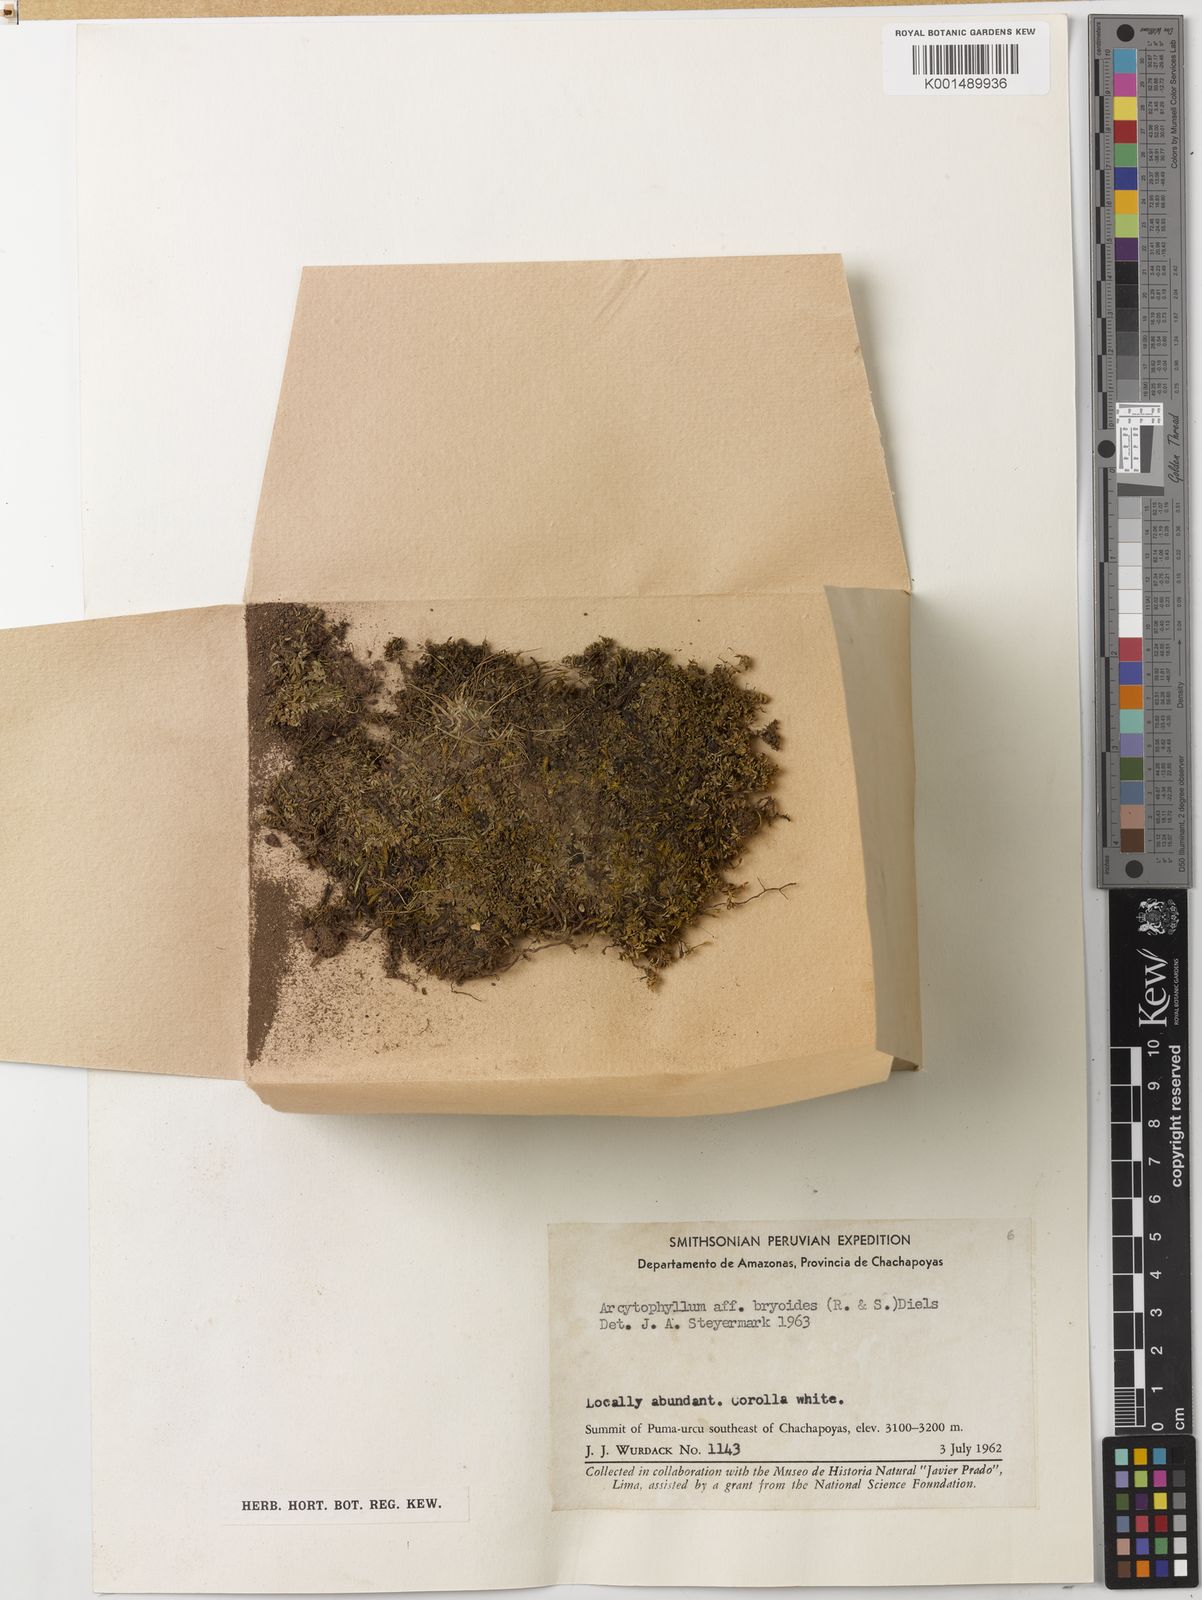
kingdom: Plantae
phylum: Tracheophyta
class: Magnoliopsida
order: Gentianales
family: Rubiaceae
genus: Arcytophyllum
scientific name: Arcytophyllum filiforme
